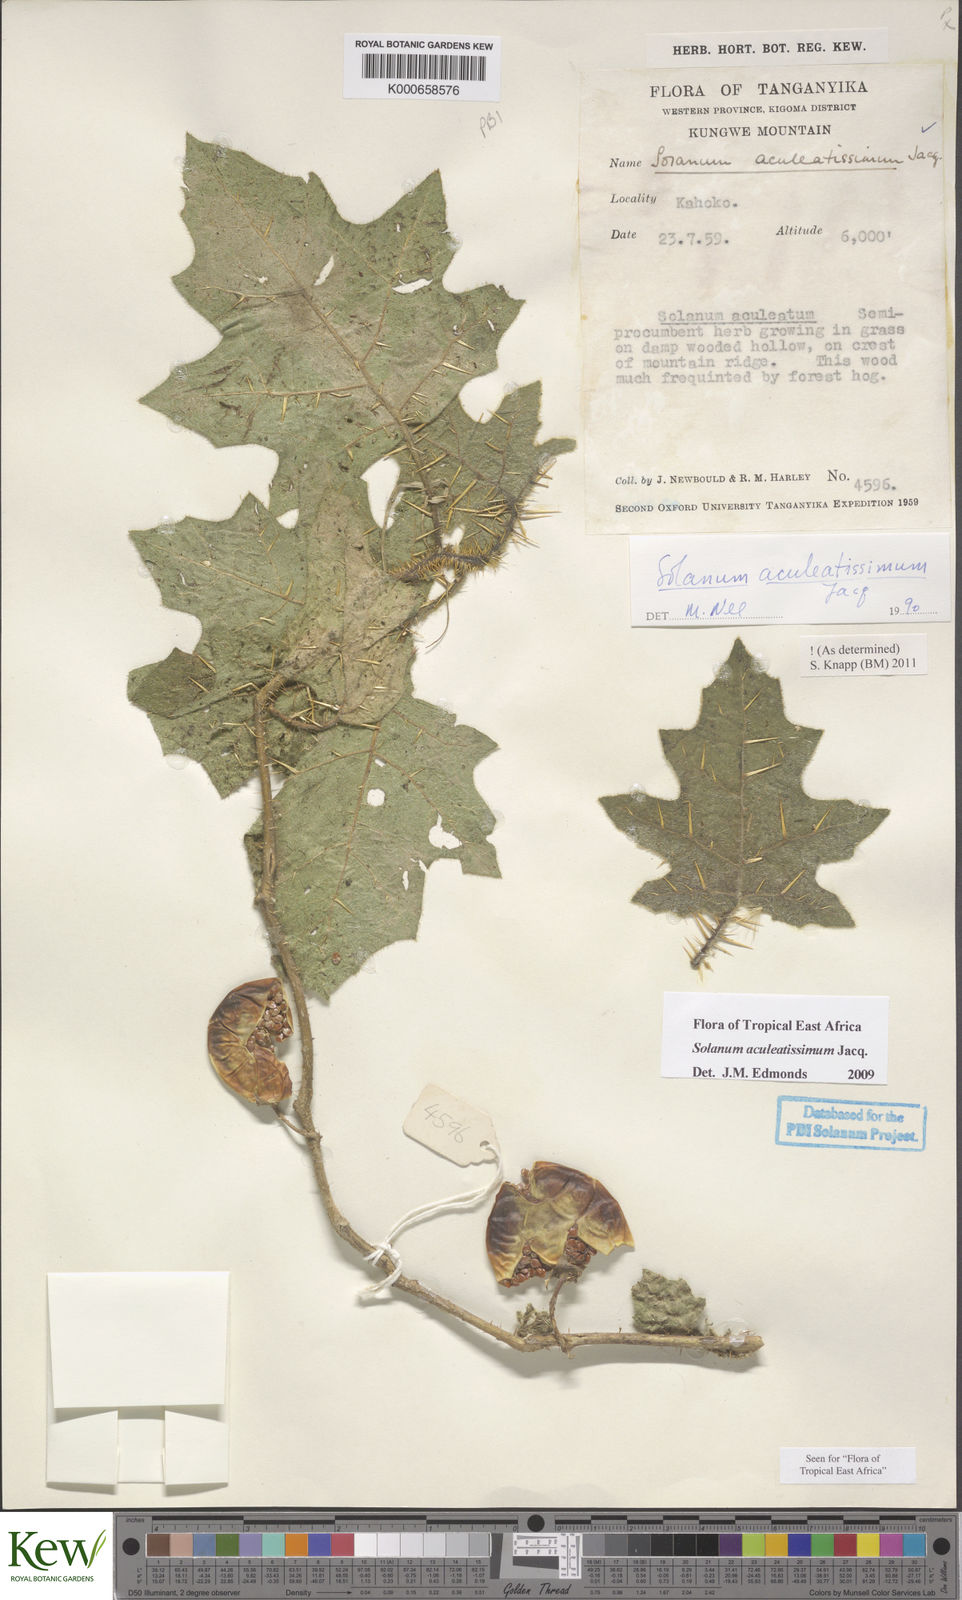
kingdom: Plantae
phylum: Tracheophyta
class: Magnoliopsida
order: Solanales
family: Solanaceae
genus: Solanum
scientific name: Solanum aculeatissimum
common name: Dutch eggplant
